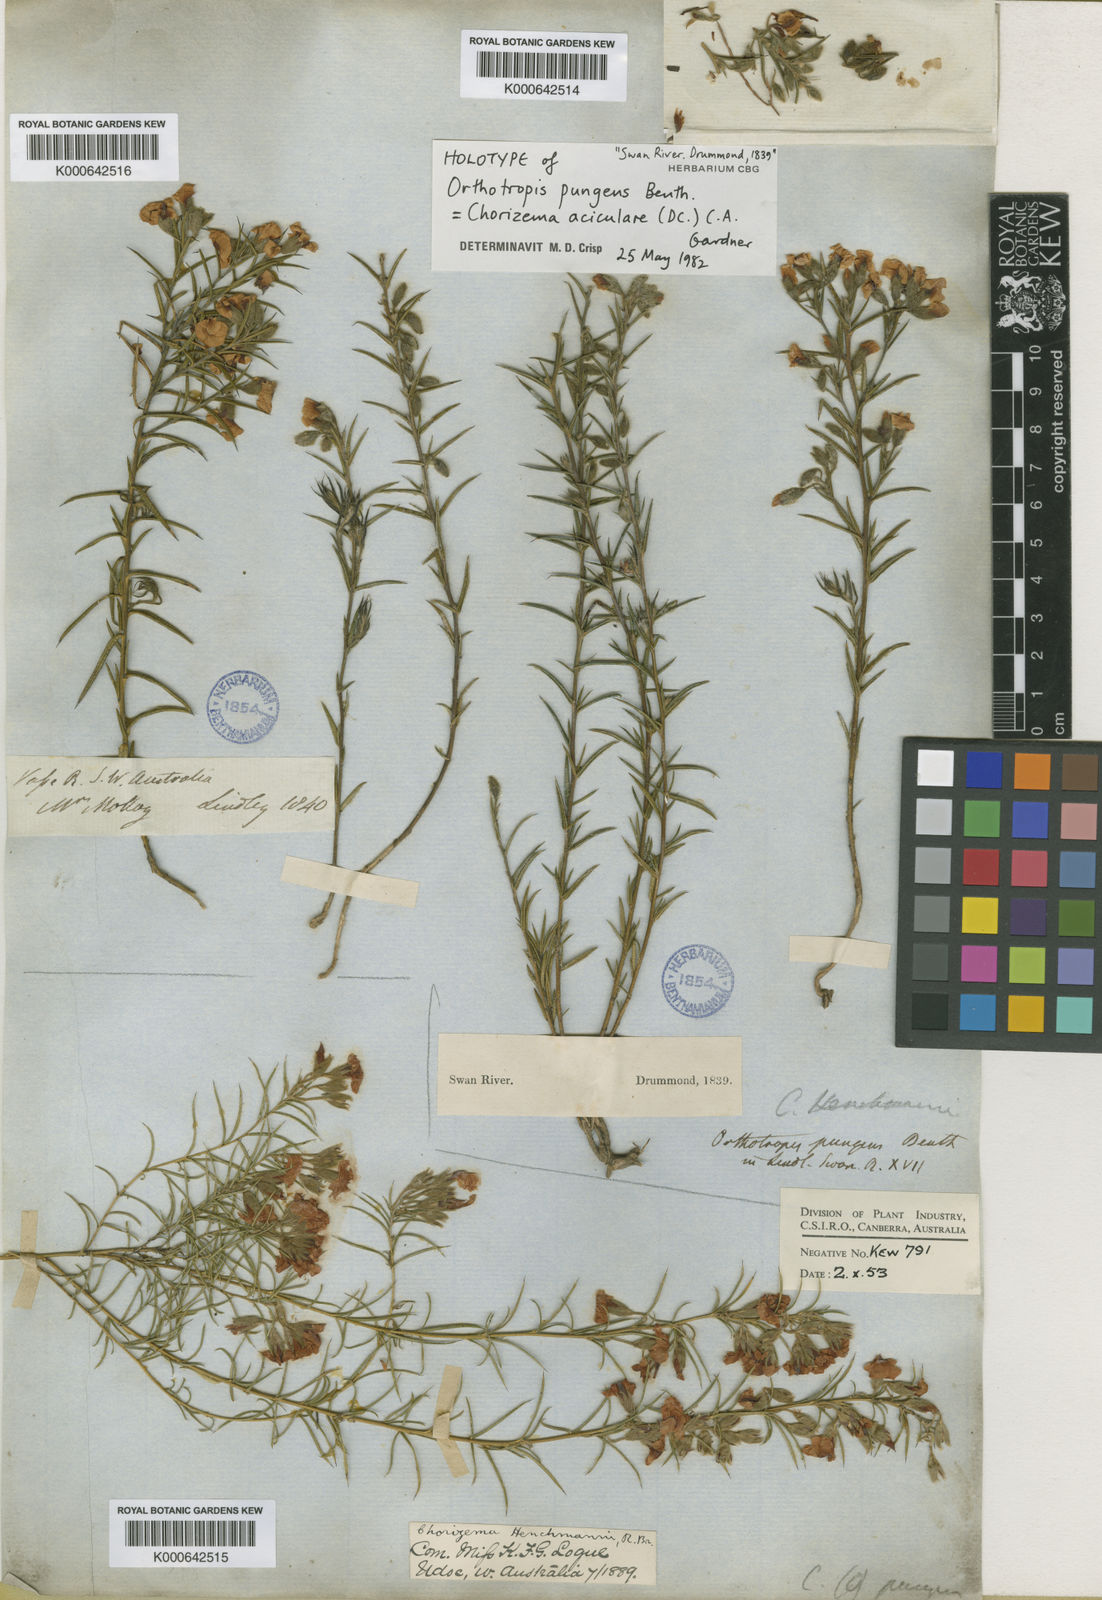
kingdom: Plantae
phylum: Tracheophyta
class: Magnoliopsida
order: Fabales
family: Fabaceae
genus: Chorizema
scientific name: Chorizema aciculare
